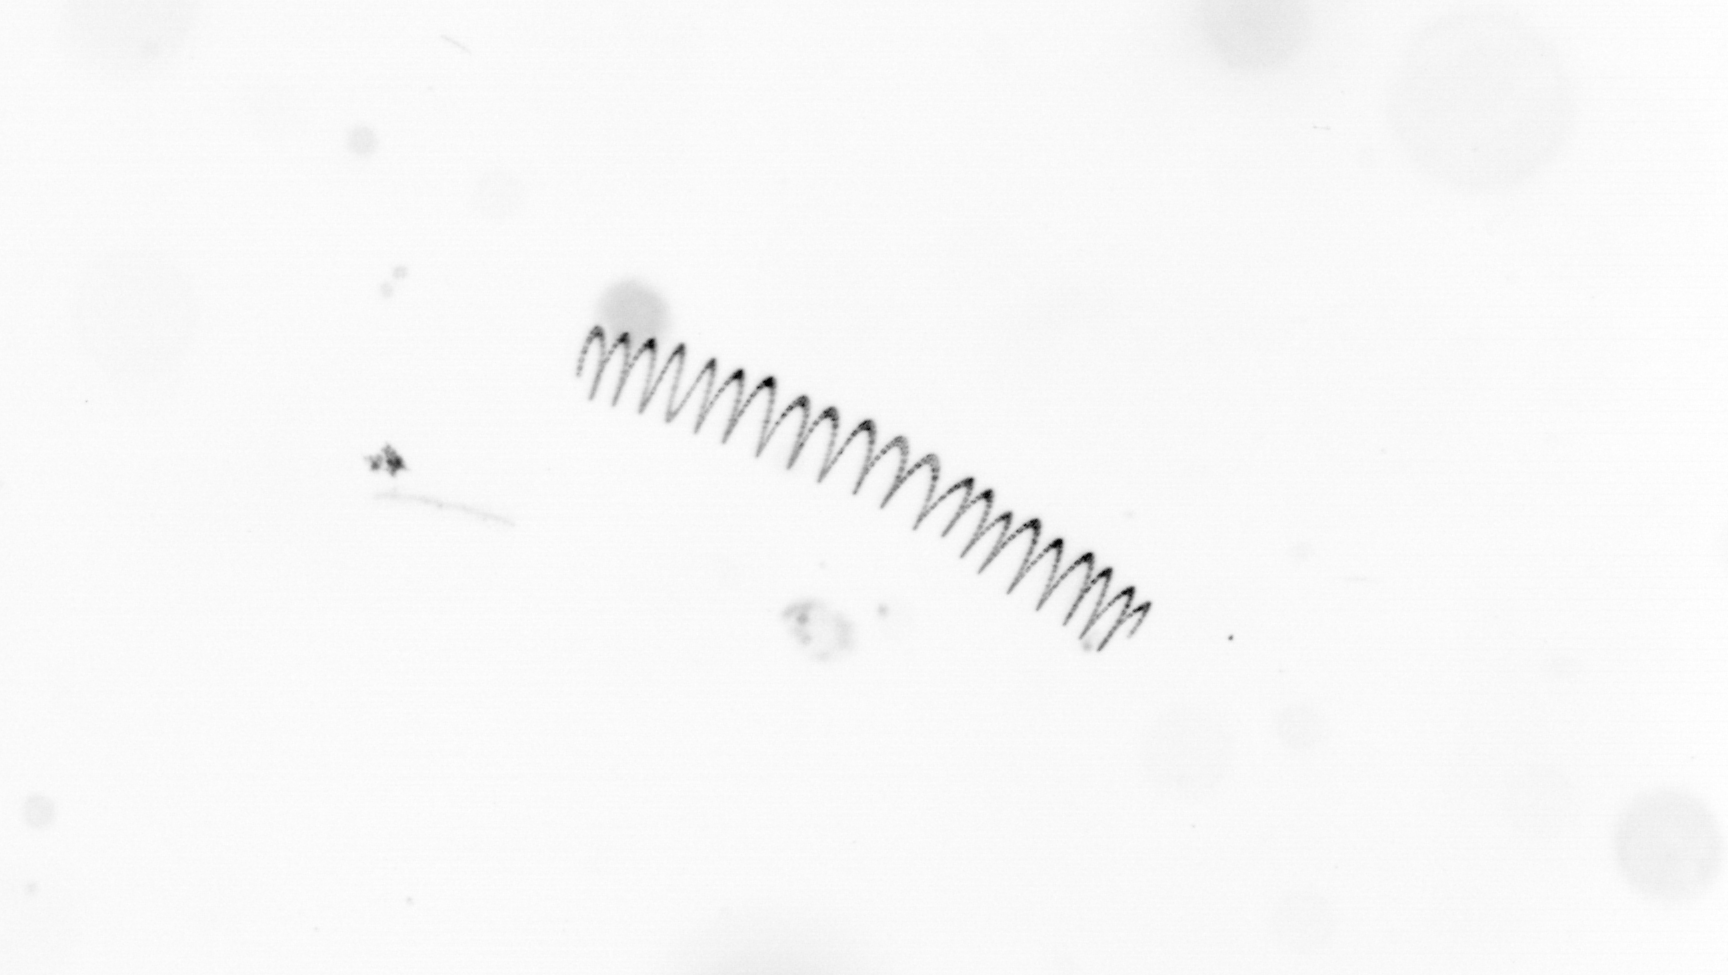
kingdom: Chromista
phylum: Ochrophyta
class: Bacillariophyceae
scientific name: Bacillariophyceae
